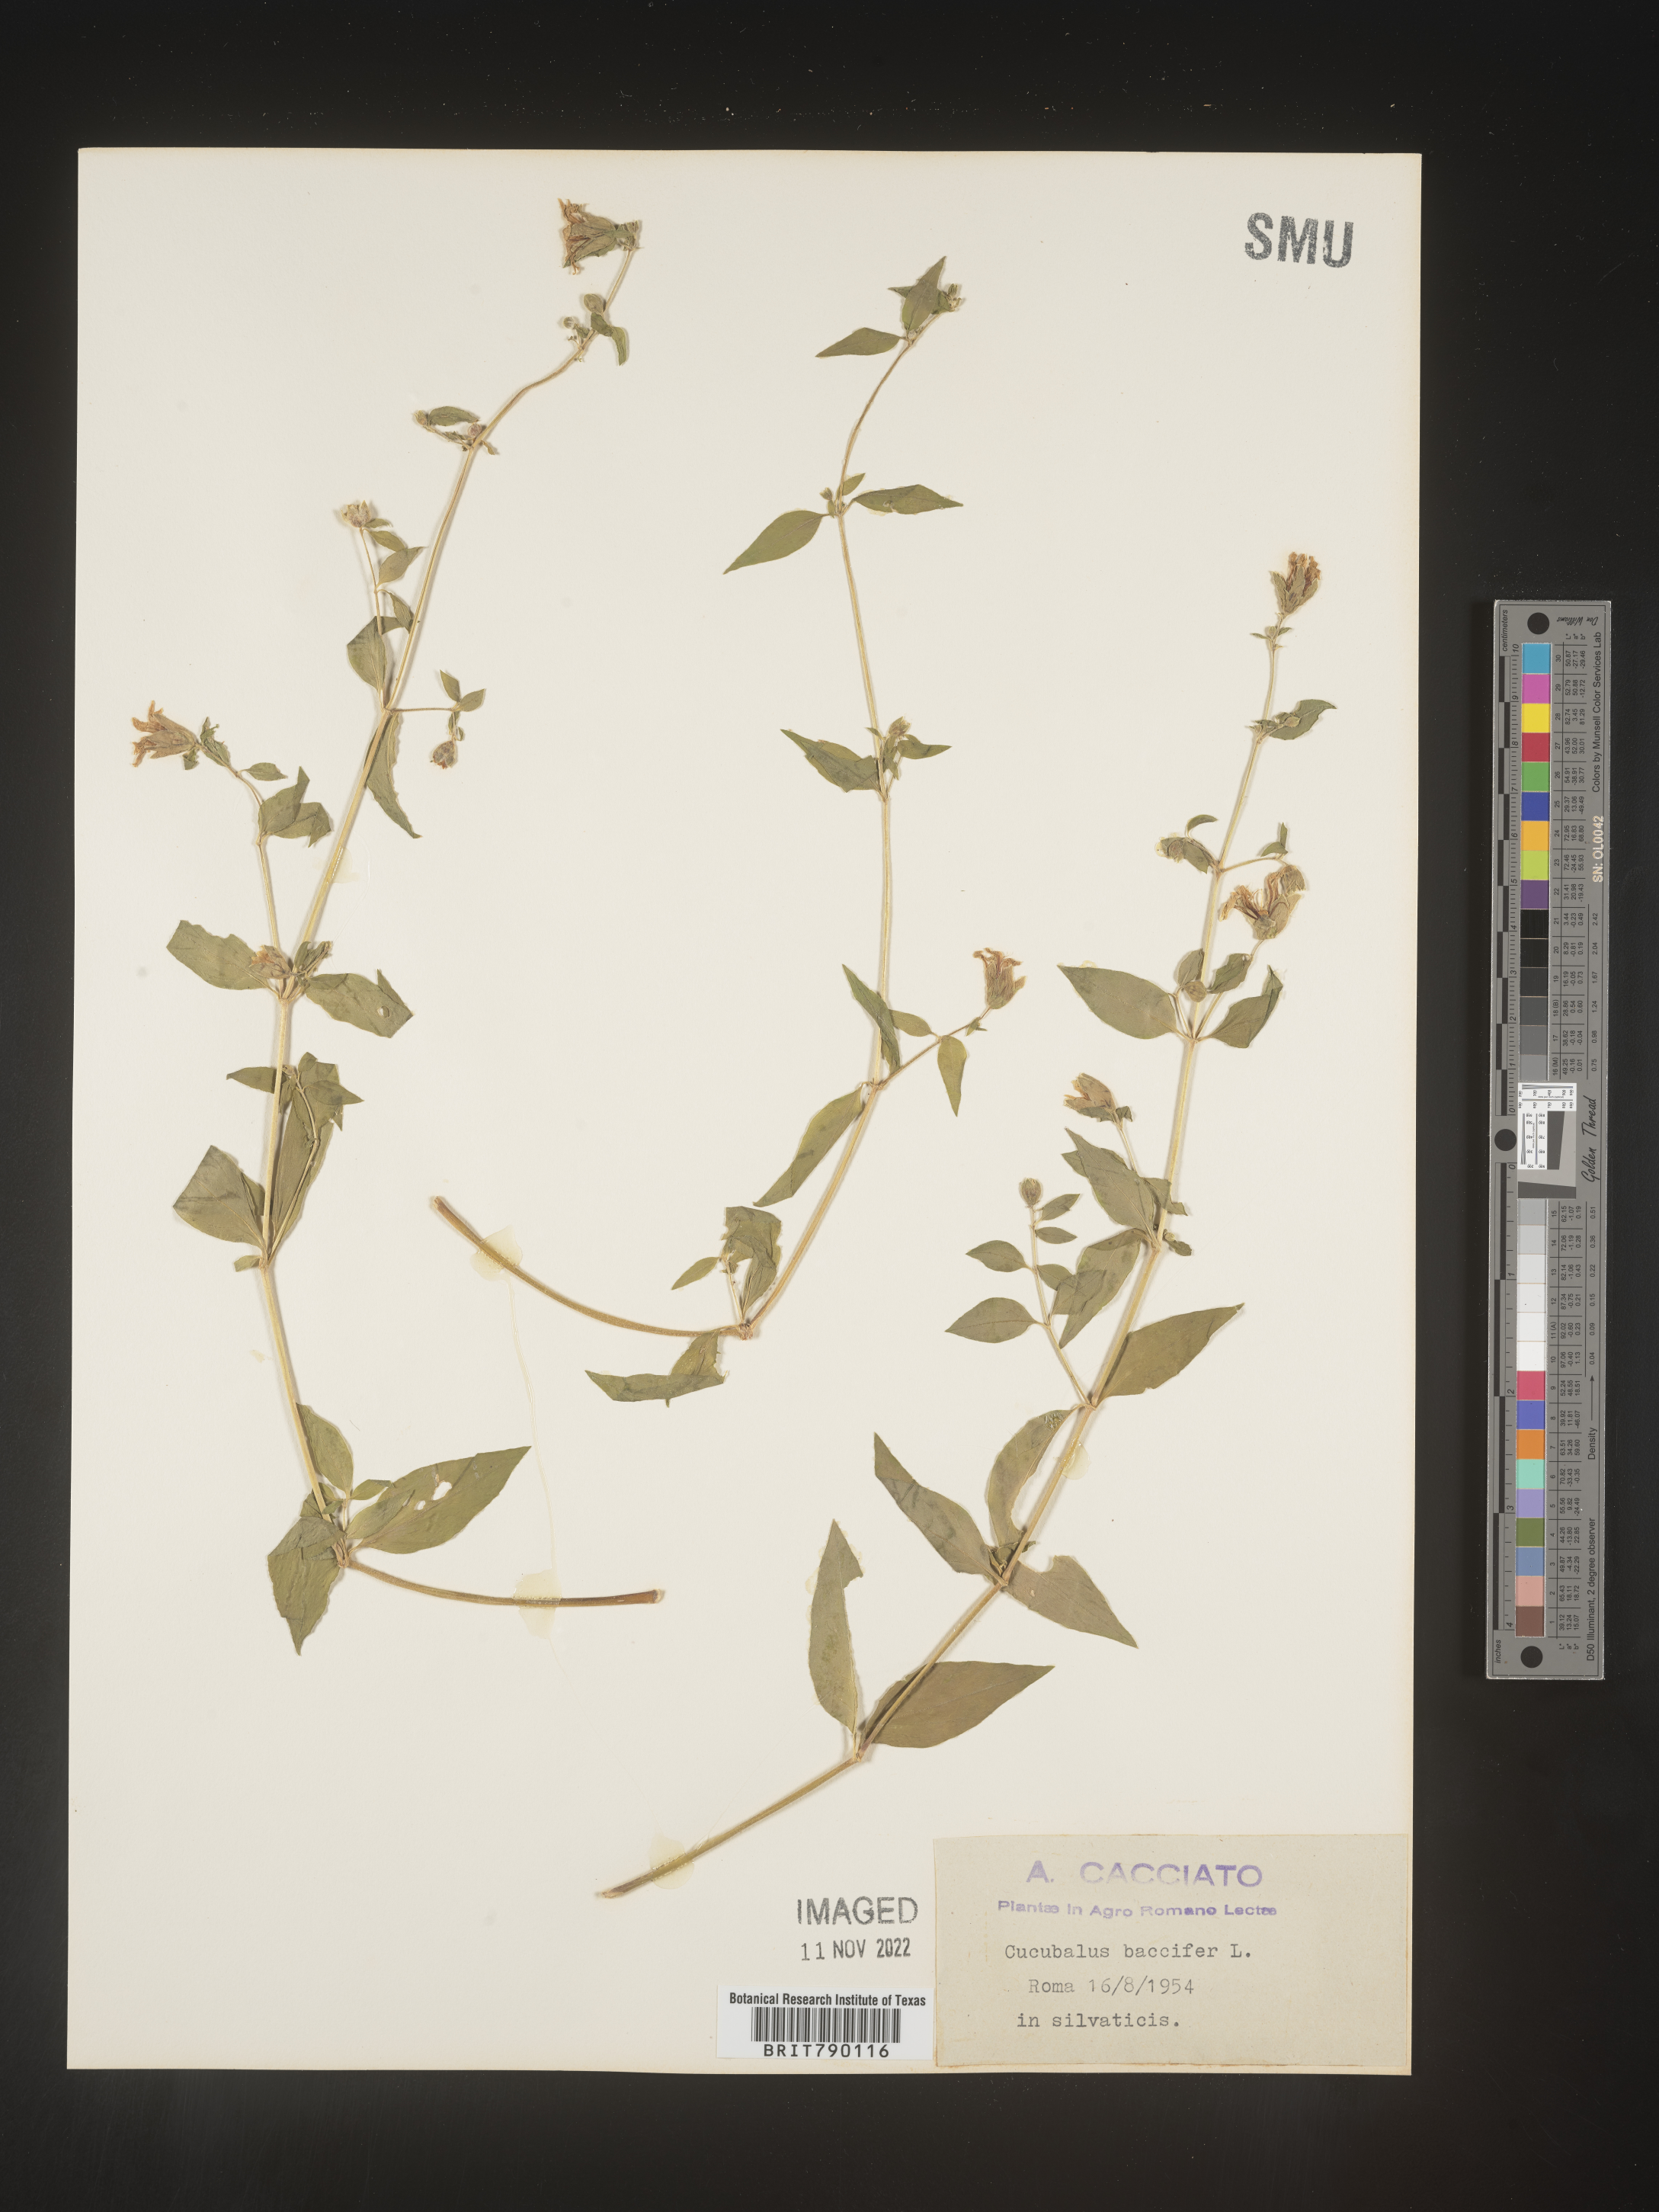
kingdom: Animalia
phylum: Cnidaria
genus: Cucubalus
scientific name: Cucubalus
